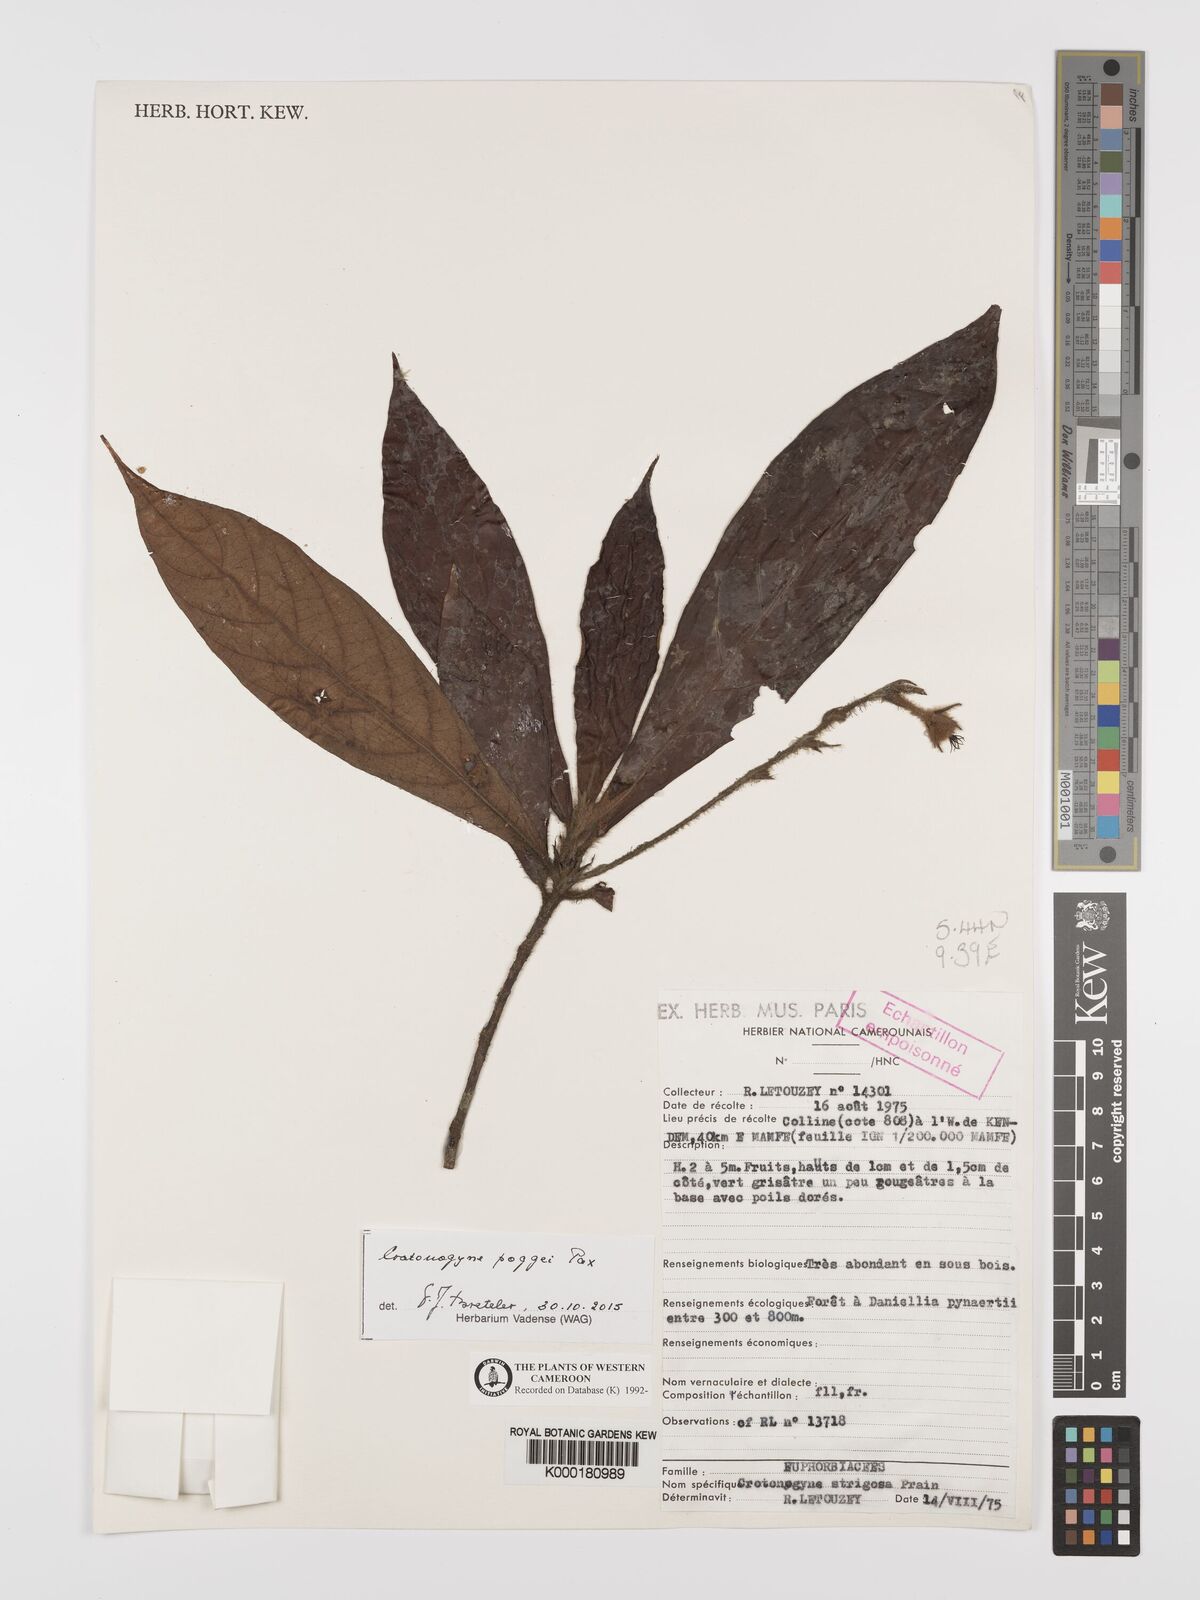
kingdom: Plantae
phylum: Tracheophyta
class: Magnoliopsida
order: Malpighiales
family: Euphorbiaceae
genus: Crotonogyne
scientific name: Crotonogyne poggei
